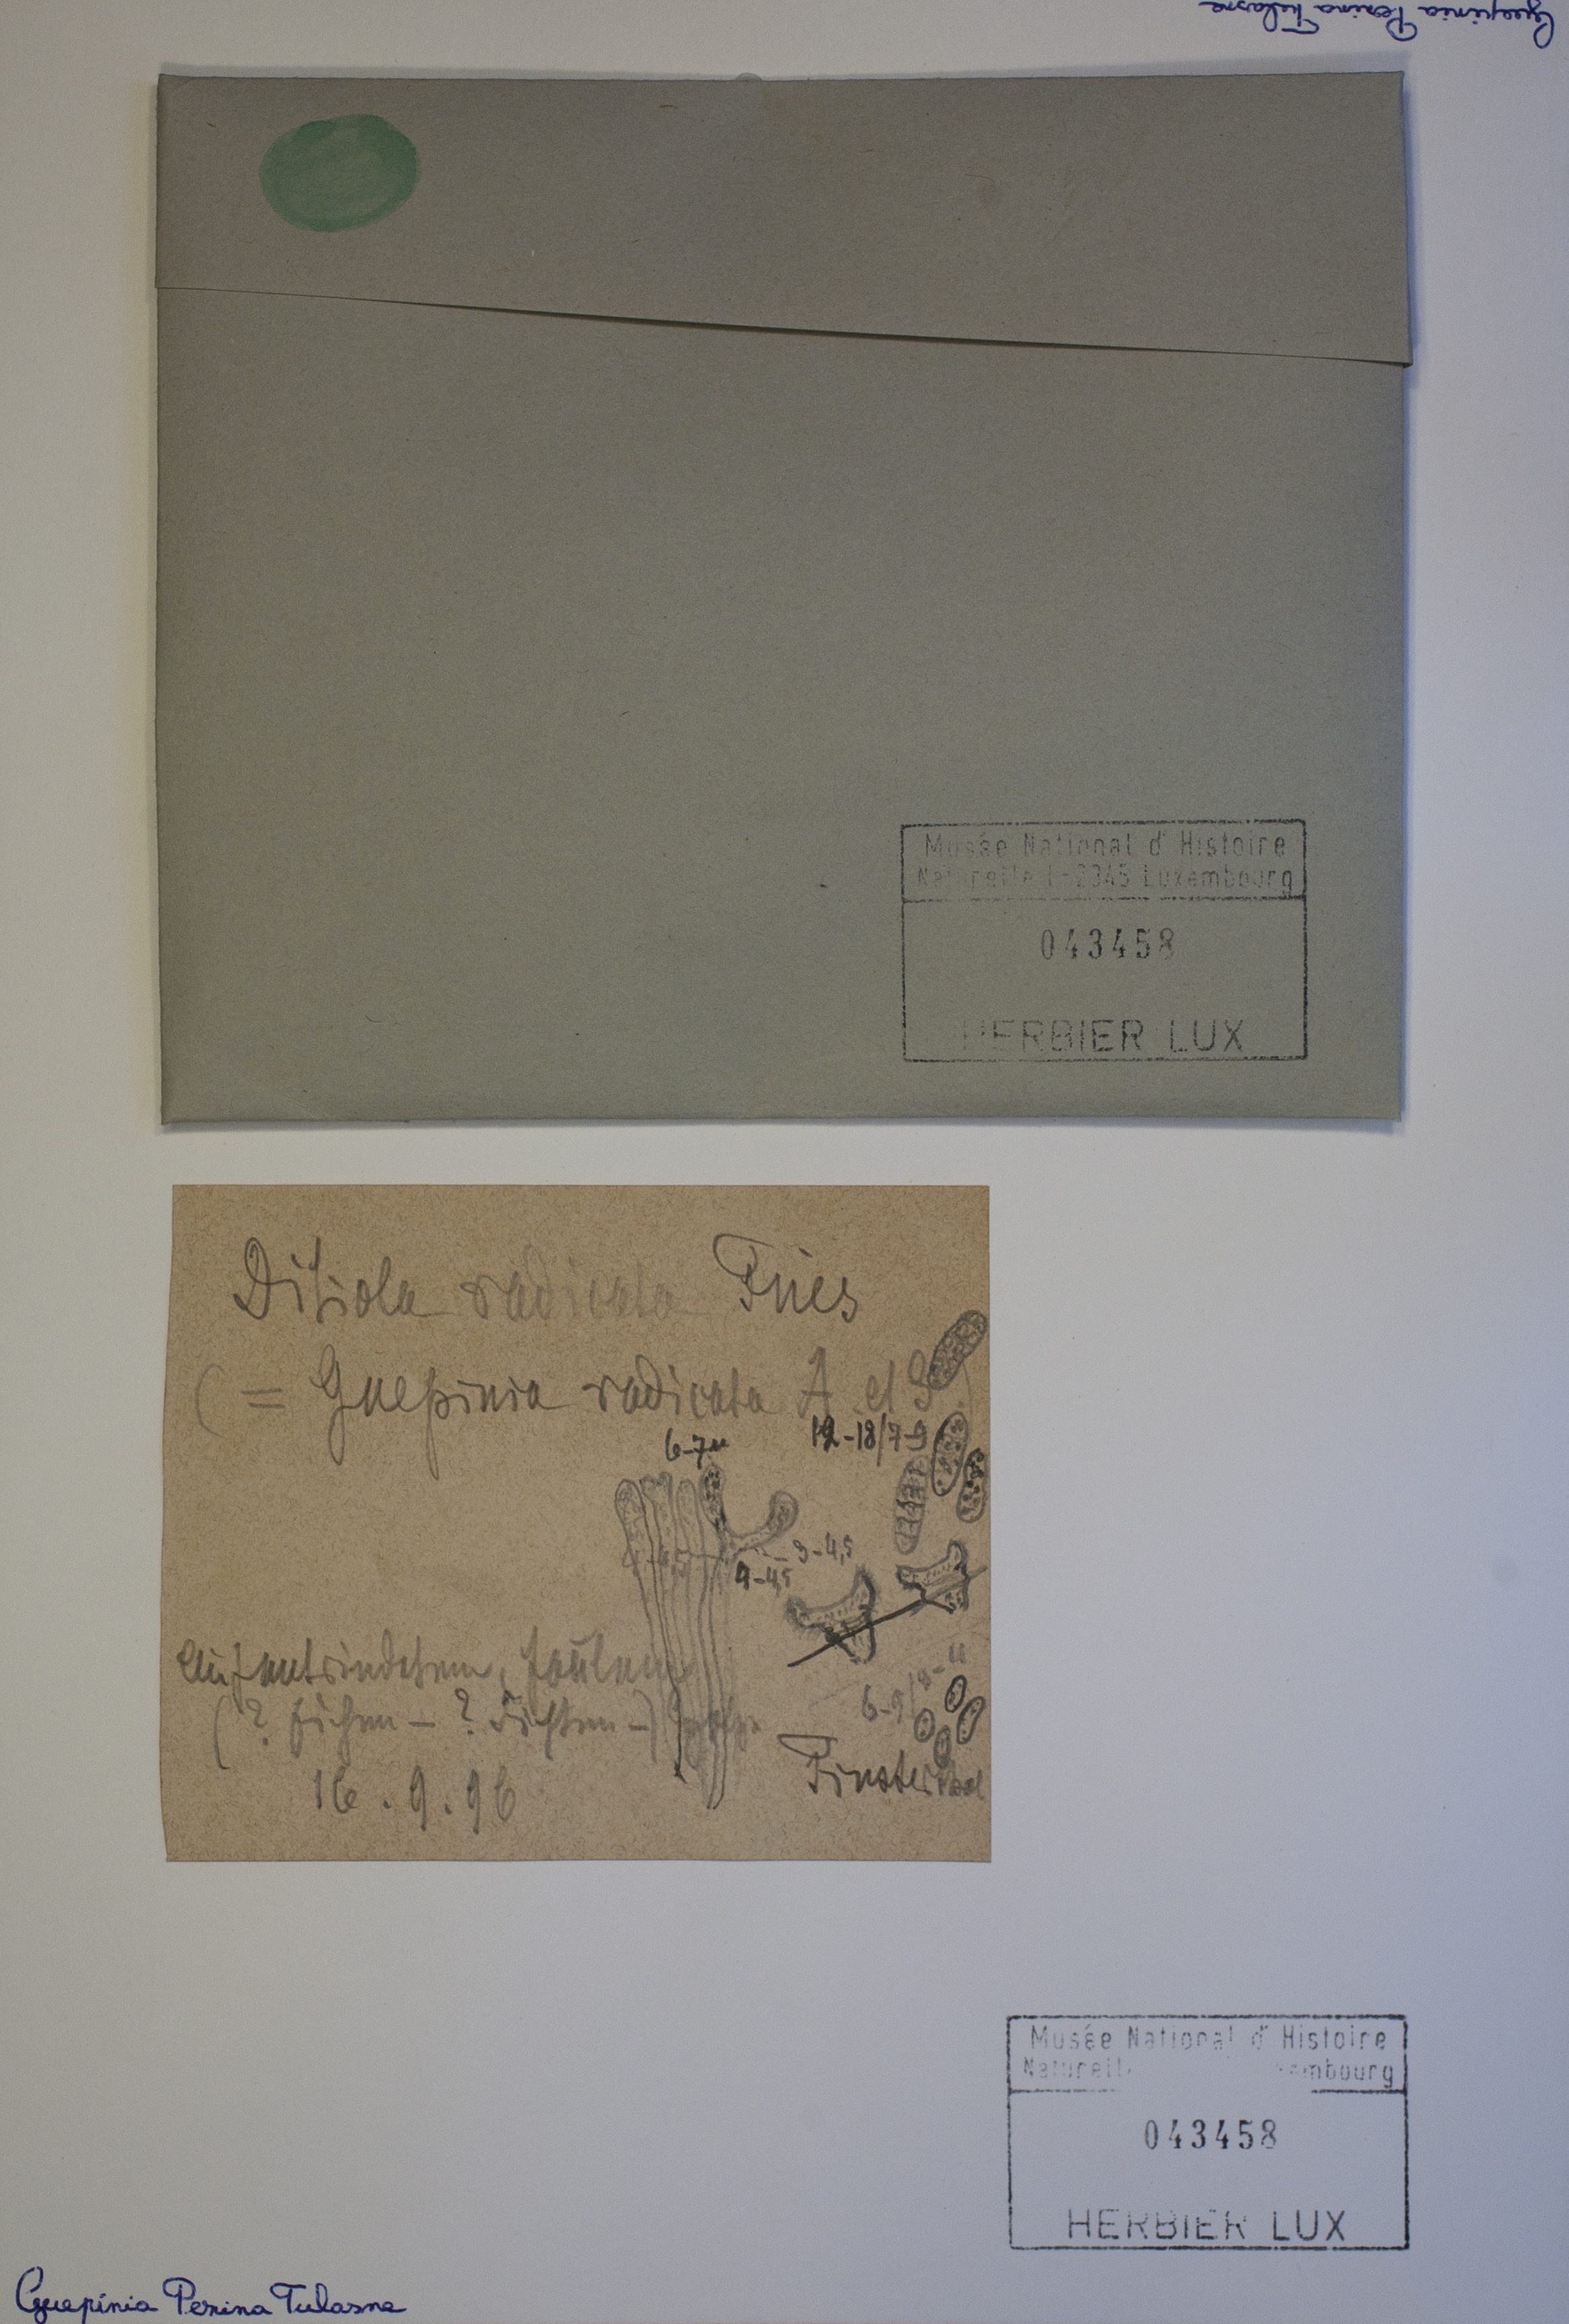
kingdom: Fungi
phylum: Basidiomycota
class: Dacrymycetes
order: Dacrymycetales
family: Dacrymycetaceae
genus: Guepiniopsis
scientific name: Guepiniopsis buccina
